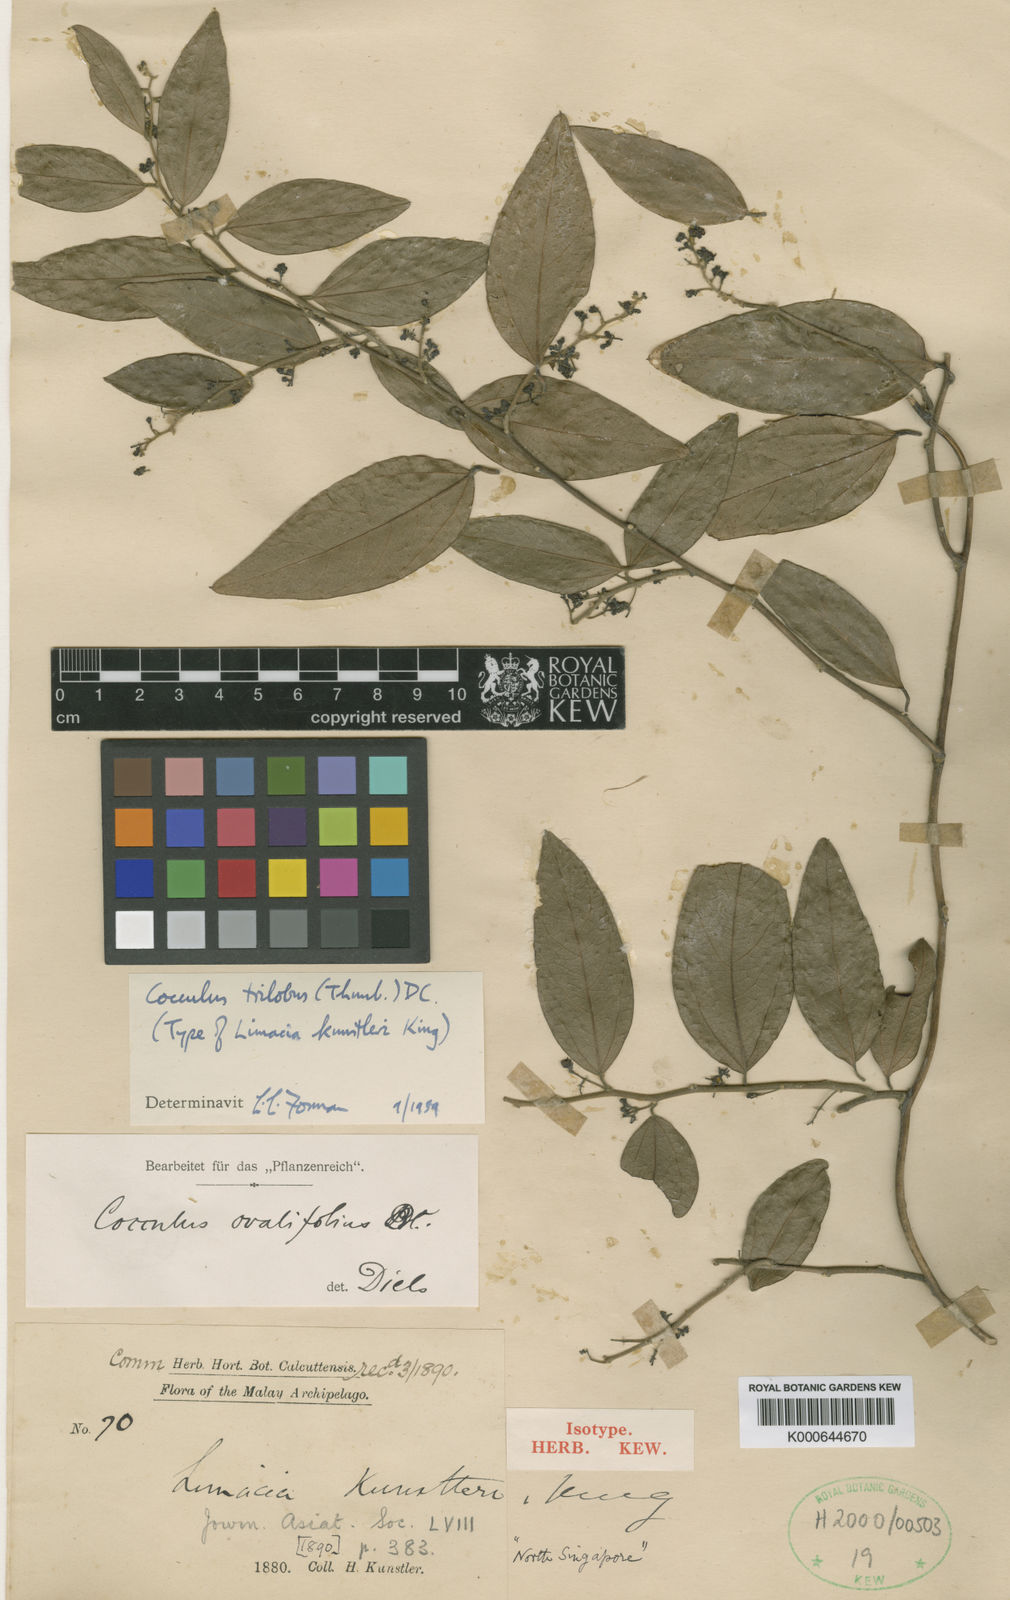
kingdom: Plantae
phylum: Tracheophyta
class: Magnoliopsida
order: Ranunculales
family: Menispermaceae
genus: Cocculus
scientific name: Cocculus orbiculatus
